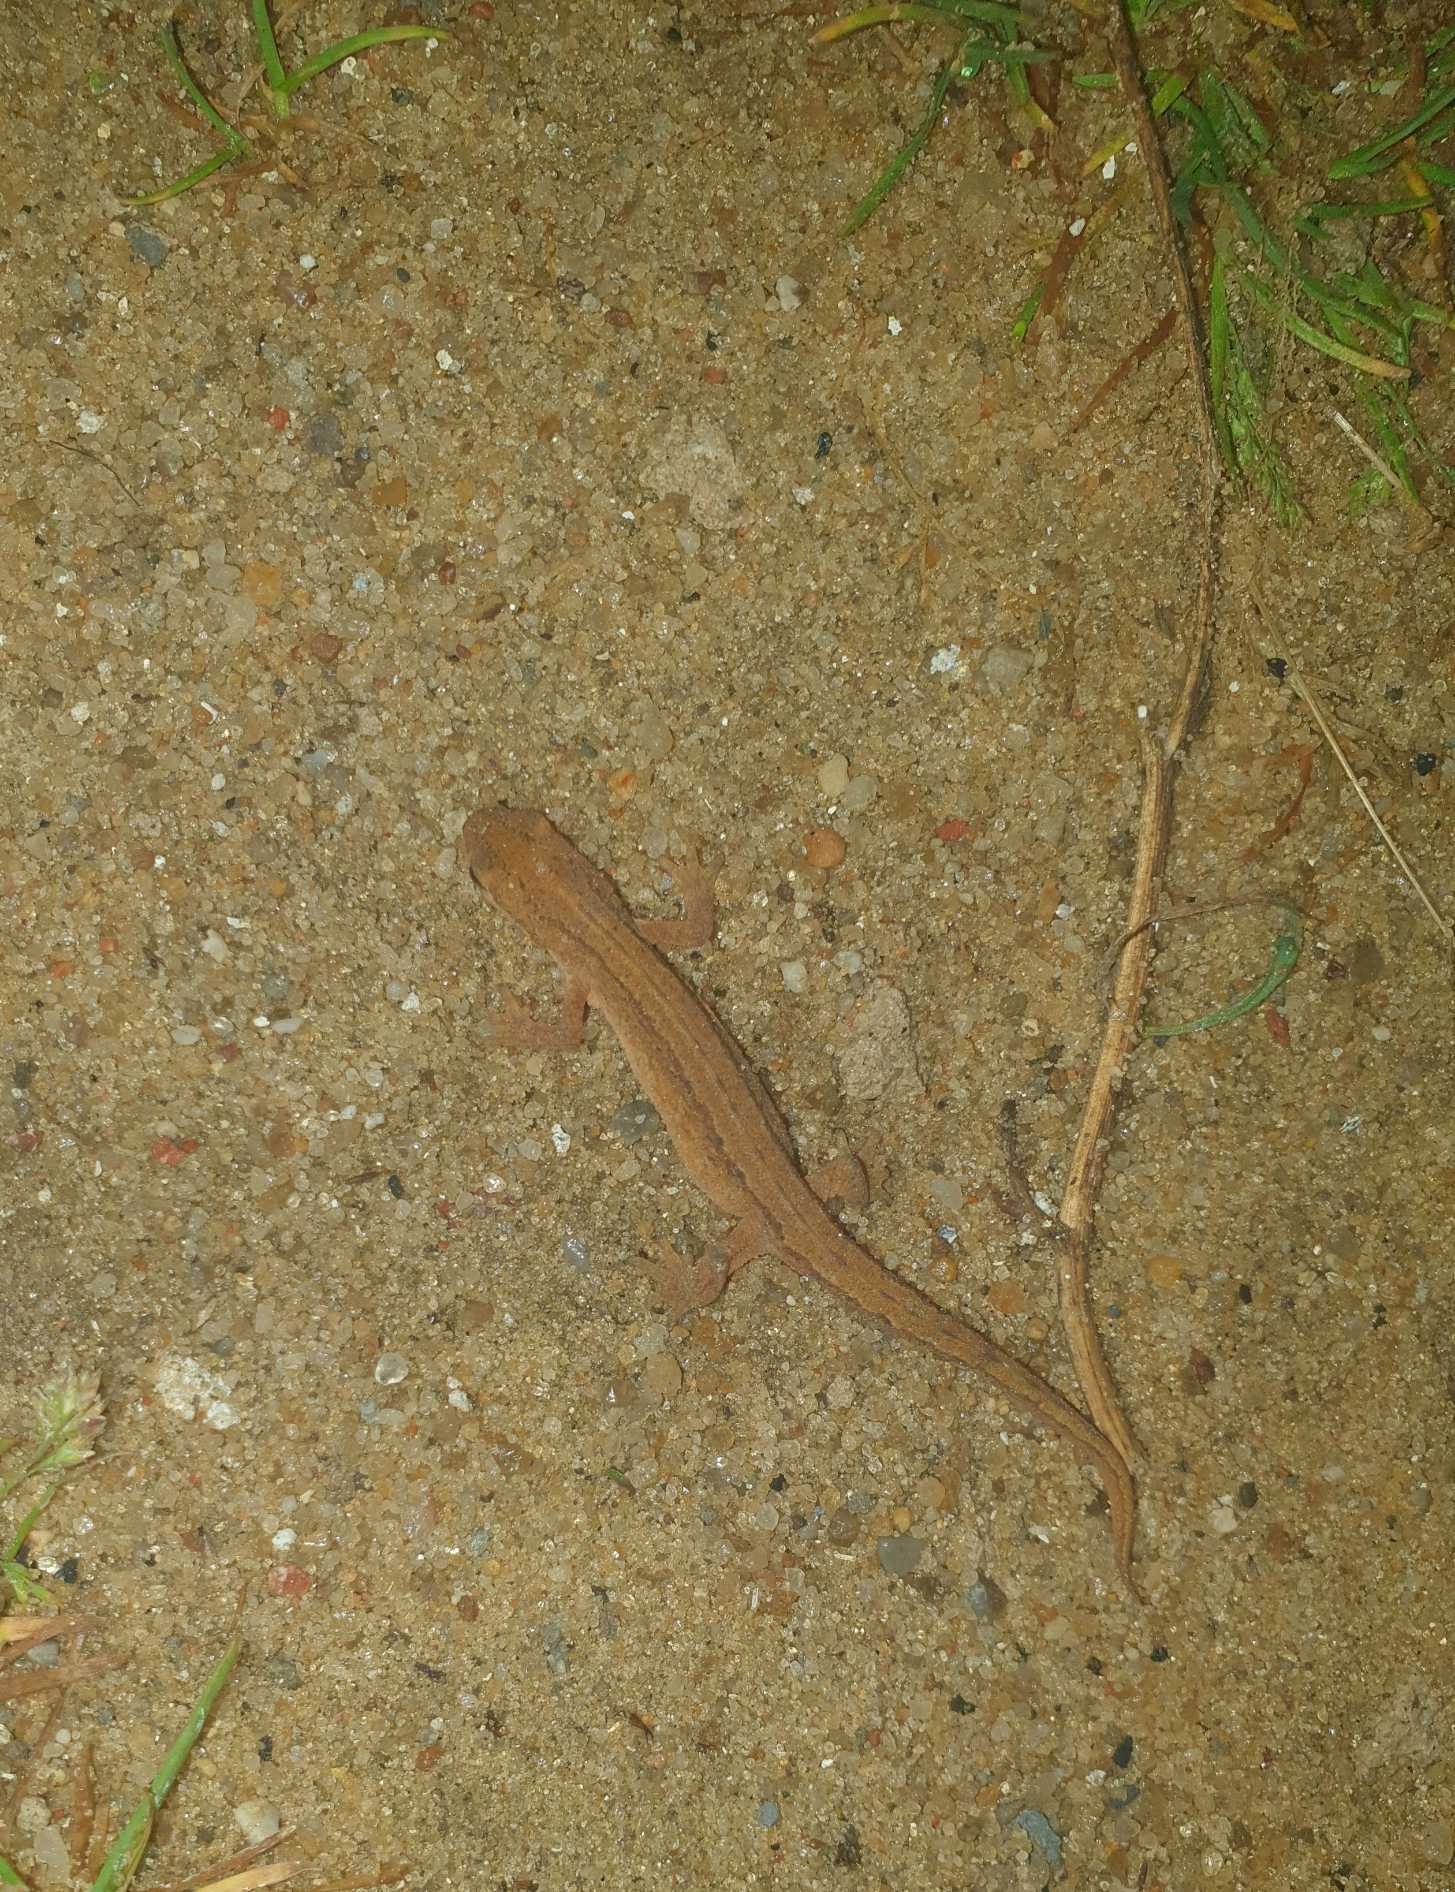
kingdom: Animalia
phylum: Chordata
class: Amphibia
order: Caudata
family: Salamandridae
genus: Lissotriton
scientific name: Lissotriton vulgaris
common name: Lille vandsalamander
